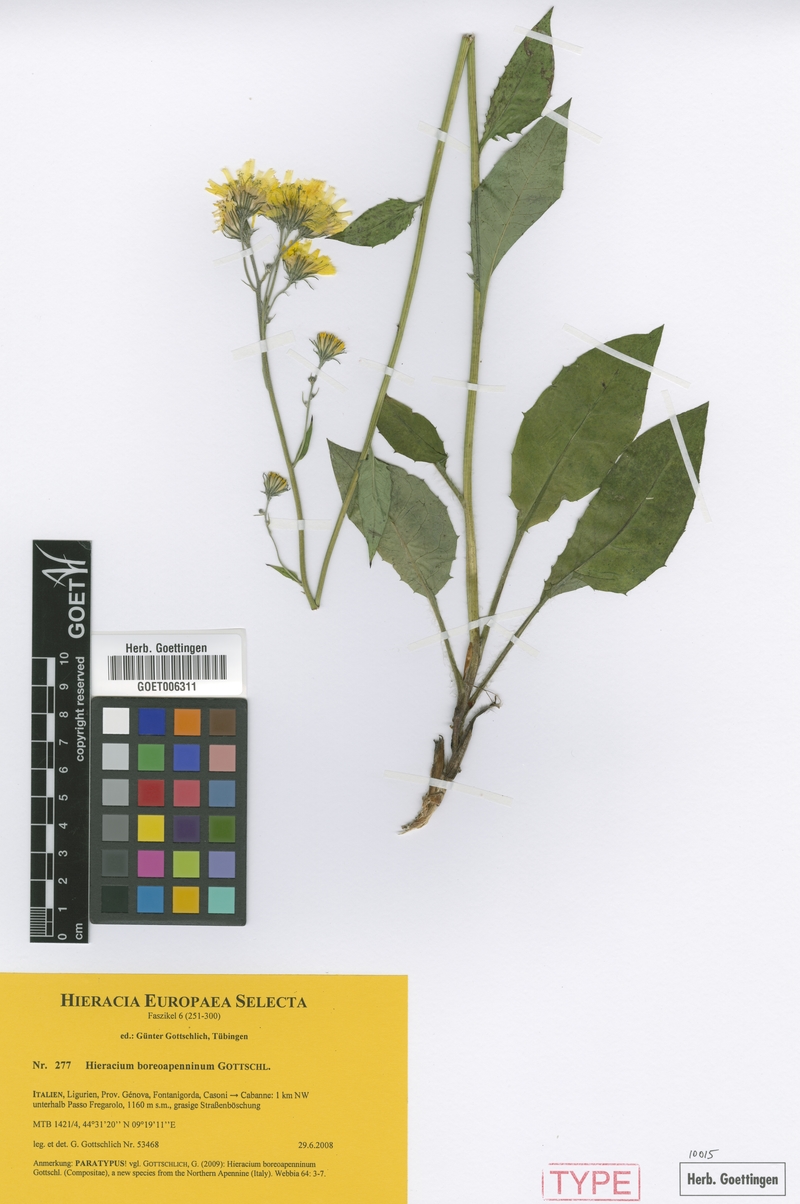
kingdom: Plantae
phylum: Tracheophyta
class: Magnoliopsida
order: Asterales
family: Asteraceae
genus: Hieracium
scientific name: Hieracium boreoapenninum
